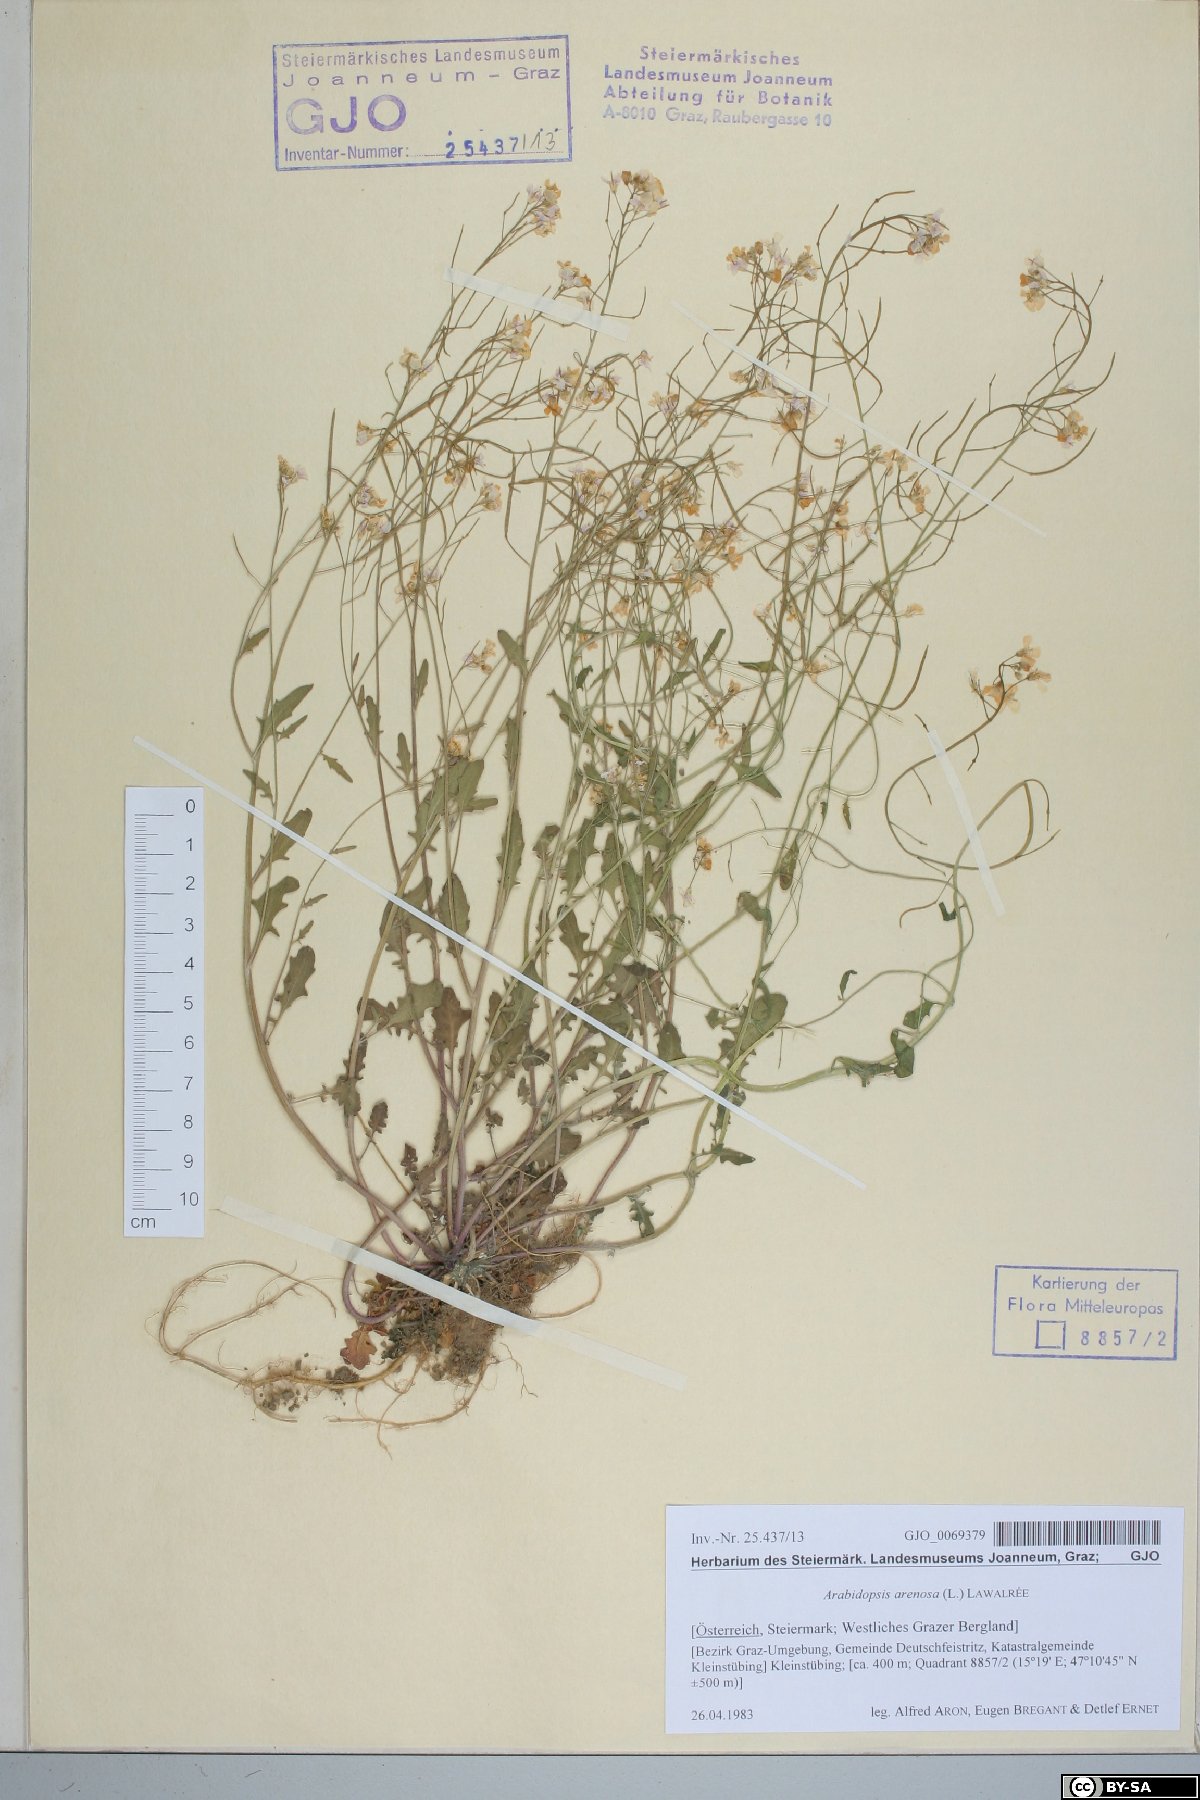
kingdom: Plantae
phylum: Tracheophyta
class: Magnoliopsida
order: Brassicales
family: Brassicaceae
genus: Arabidopsis
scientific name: Arabidopsis arenosa
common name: Sand rock-cress
